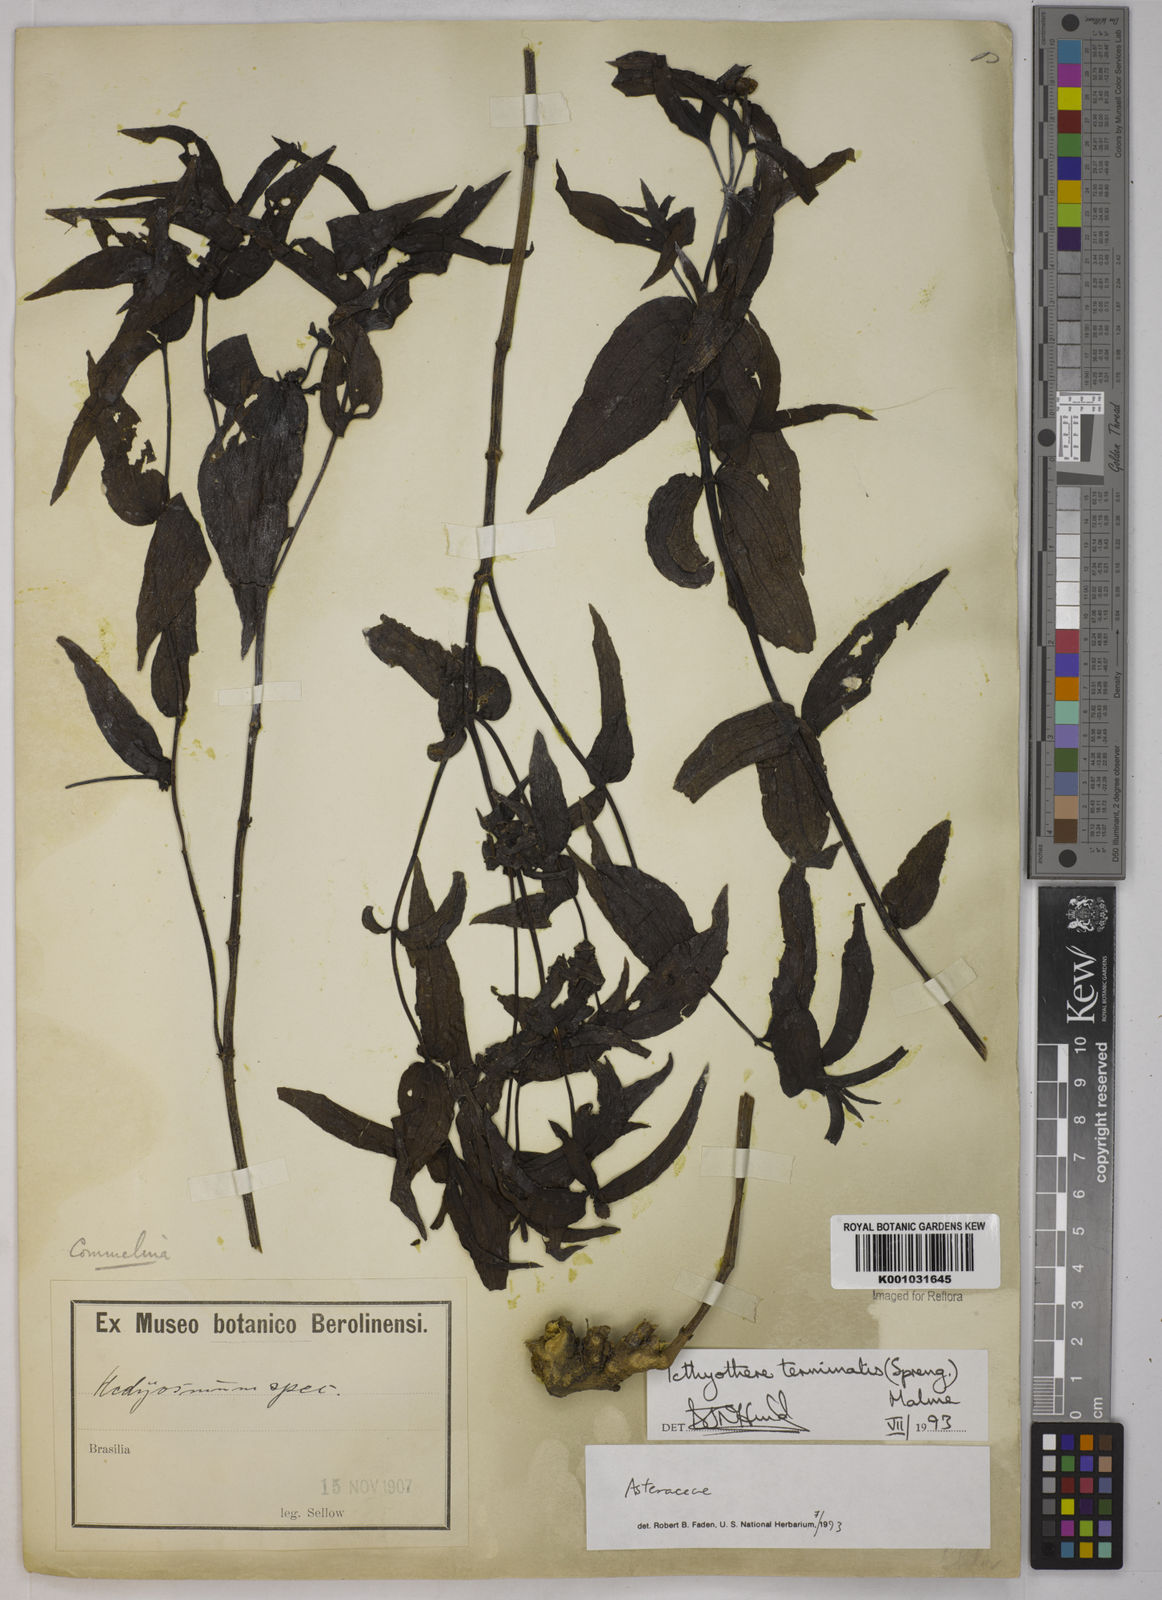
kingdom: Plantae
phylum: Tracheophyta
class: Magnoliopsida
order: Asterales
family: Asteraceae
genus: Ichthyothere
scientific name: Ichthyothere terminalis
